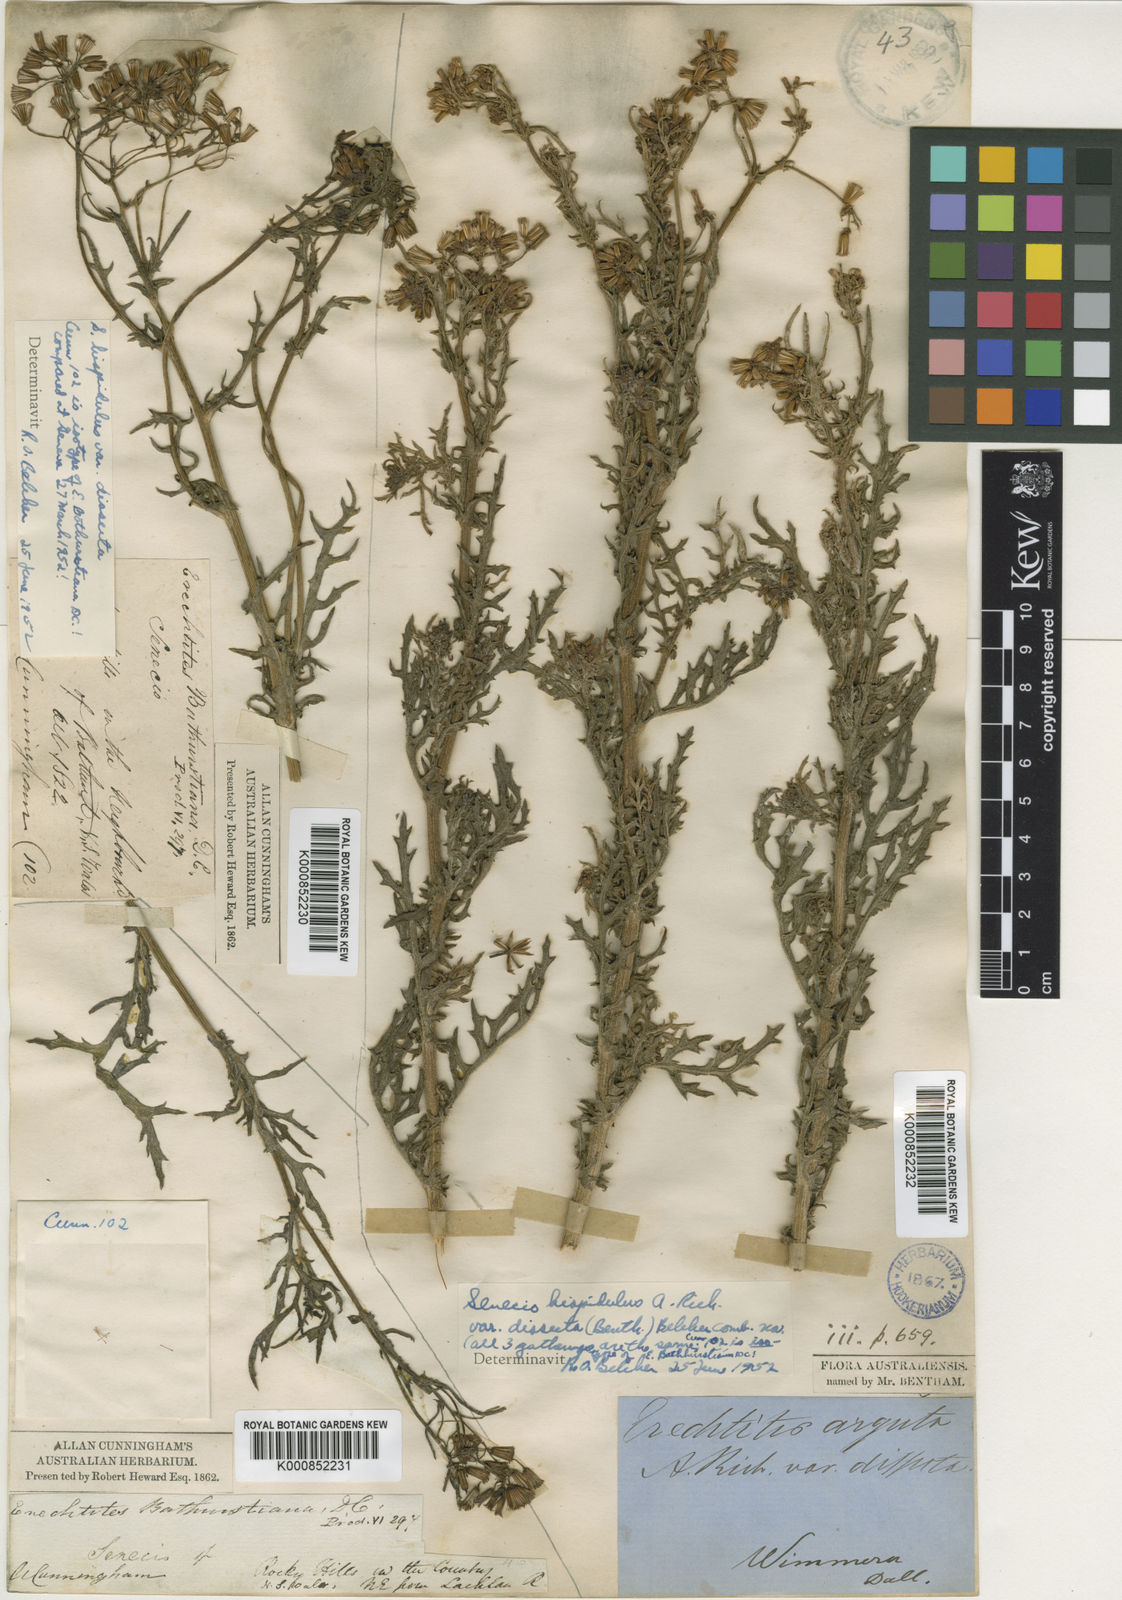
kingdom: Plantae
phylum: Tracheophyta
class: Magnoliopsida
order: Asterales
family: Asteraceae
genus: Senecio
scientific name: Senecio bathurstianus
